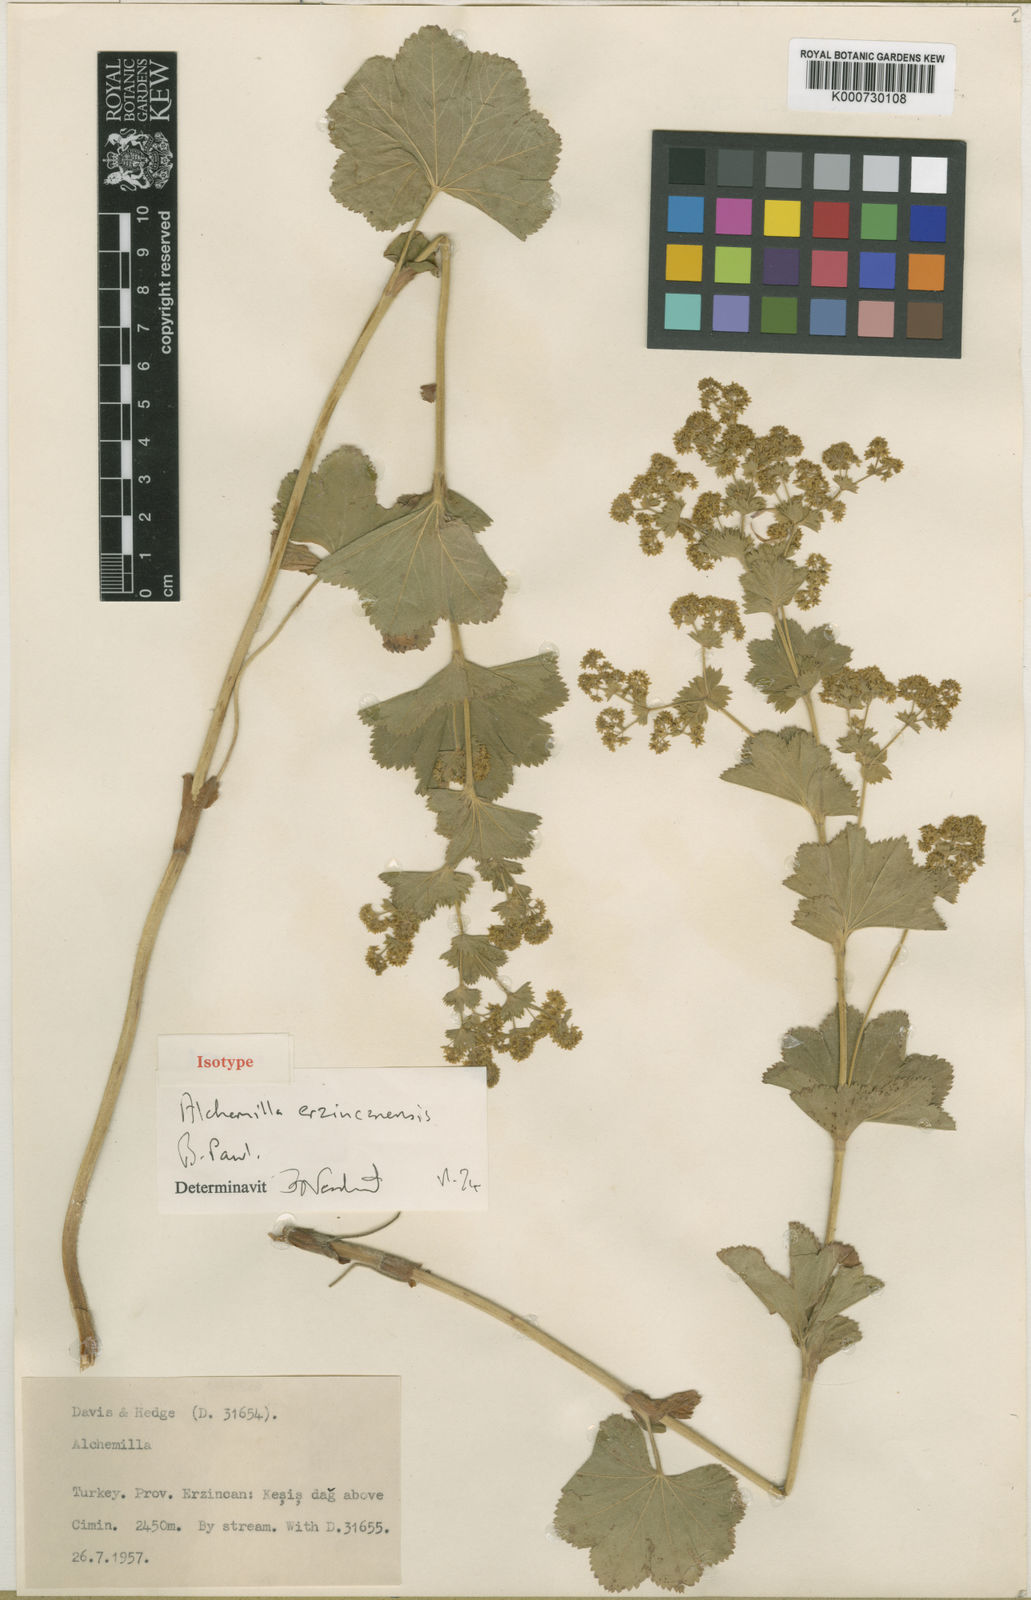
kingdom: Plantae
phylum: Tracheophyta
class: Magnoliopsida
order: Rosales
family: Rosaceae
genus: Alchemilla
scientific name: Alchemilla erzincanensis
